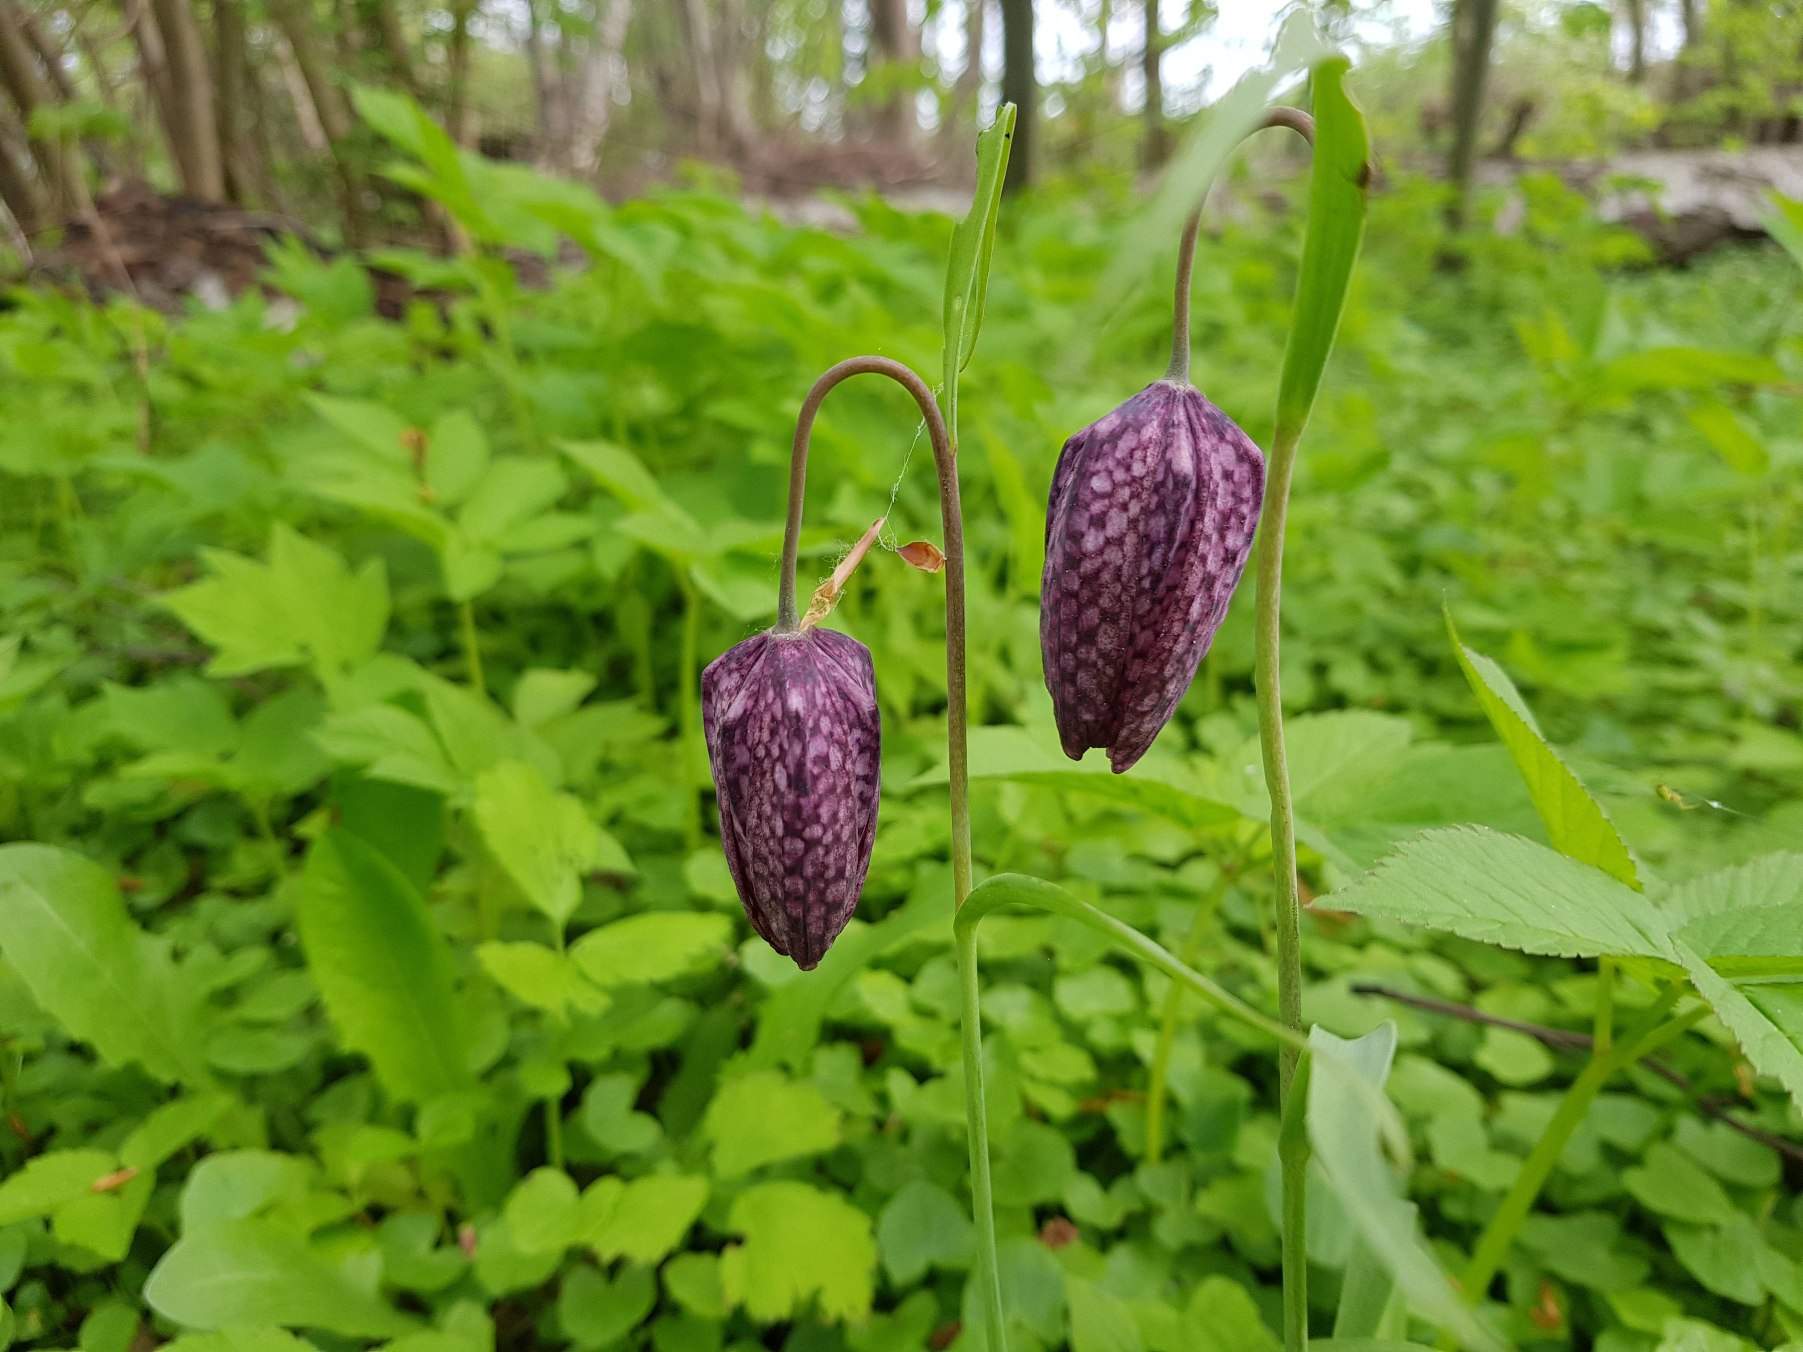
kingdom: Plantae
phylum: Tracheophyta
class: Liliopsida
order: Liliales
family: Liliaceae
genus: Fritillaria
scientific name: Fritillaria meleagris
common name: Vibeæg
